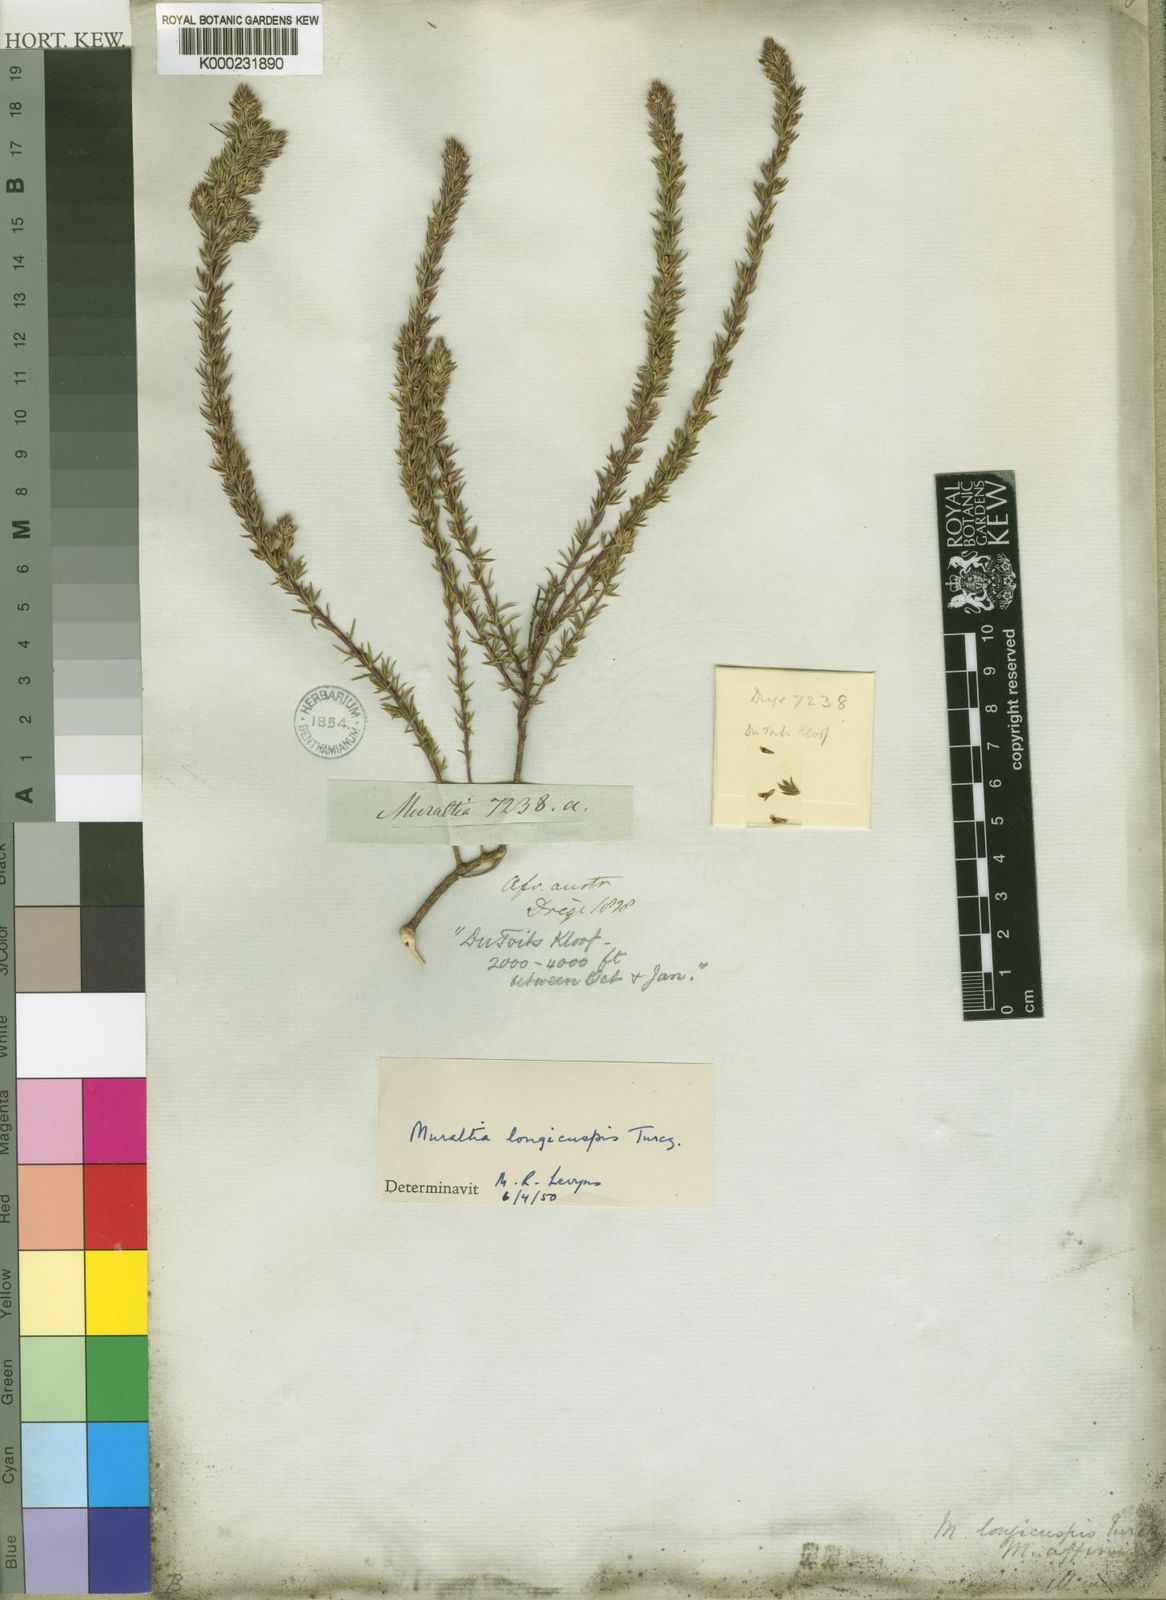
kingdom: Plantae
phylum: Tracheophyta
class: Magnoliopsida
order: Fabales
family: Polygalaceae
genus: Muraltia
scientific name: Muraltia longicuspis
